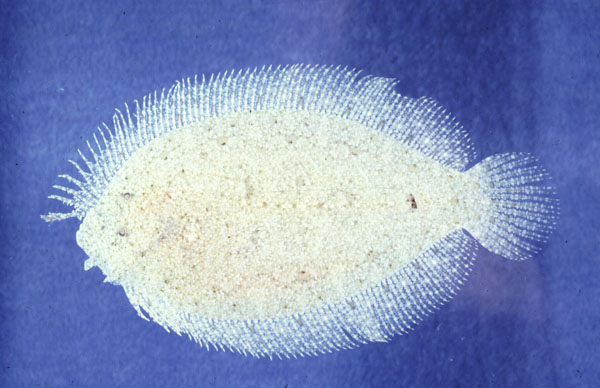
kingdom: Animalia
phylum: Chordata
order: Pleuronectiformes
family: Bothidae
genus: Asterorhombus
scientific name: Asterorhombus cocosensis
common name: Angler flatfish
